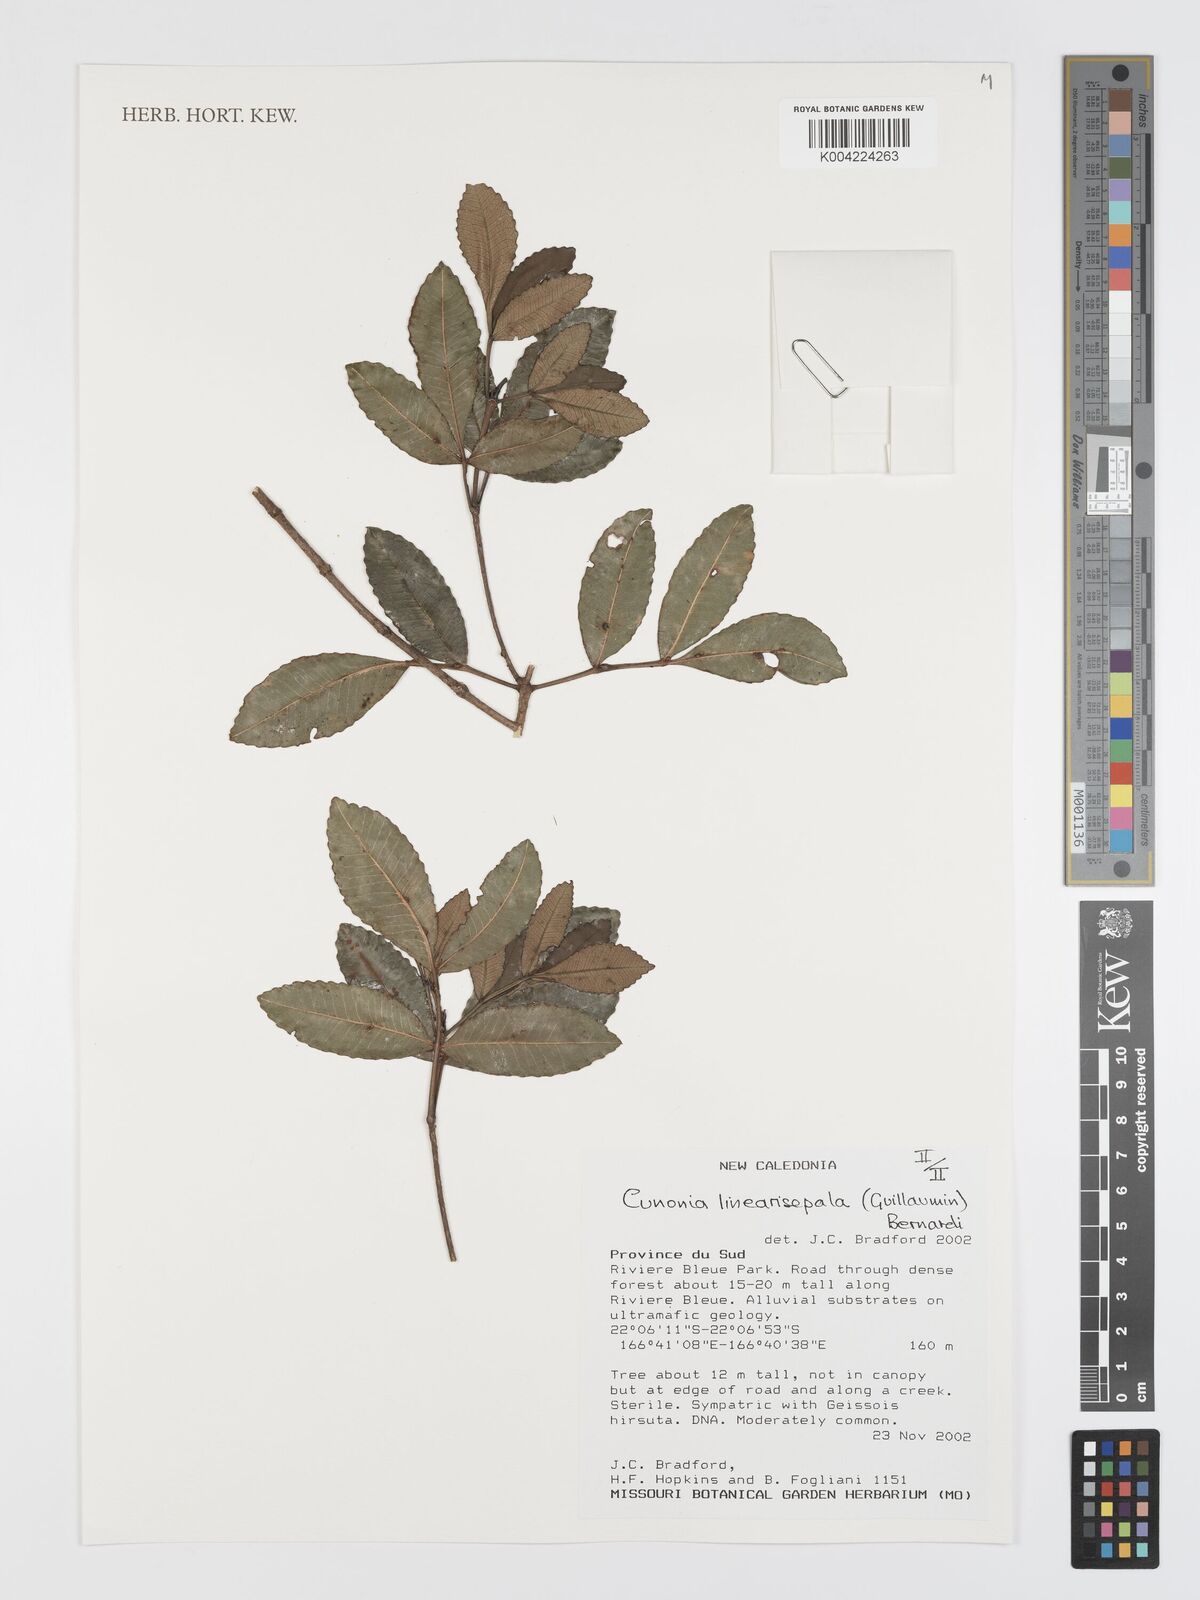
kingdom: Plantae
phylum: Tracheophyta
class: Magnoliopsida
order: Oxalidales
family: Cunoniaceae
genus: Cunonia
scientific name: Cunonia linearisepala
